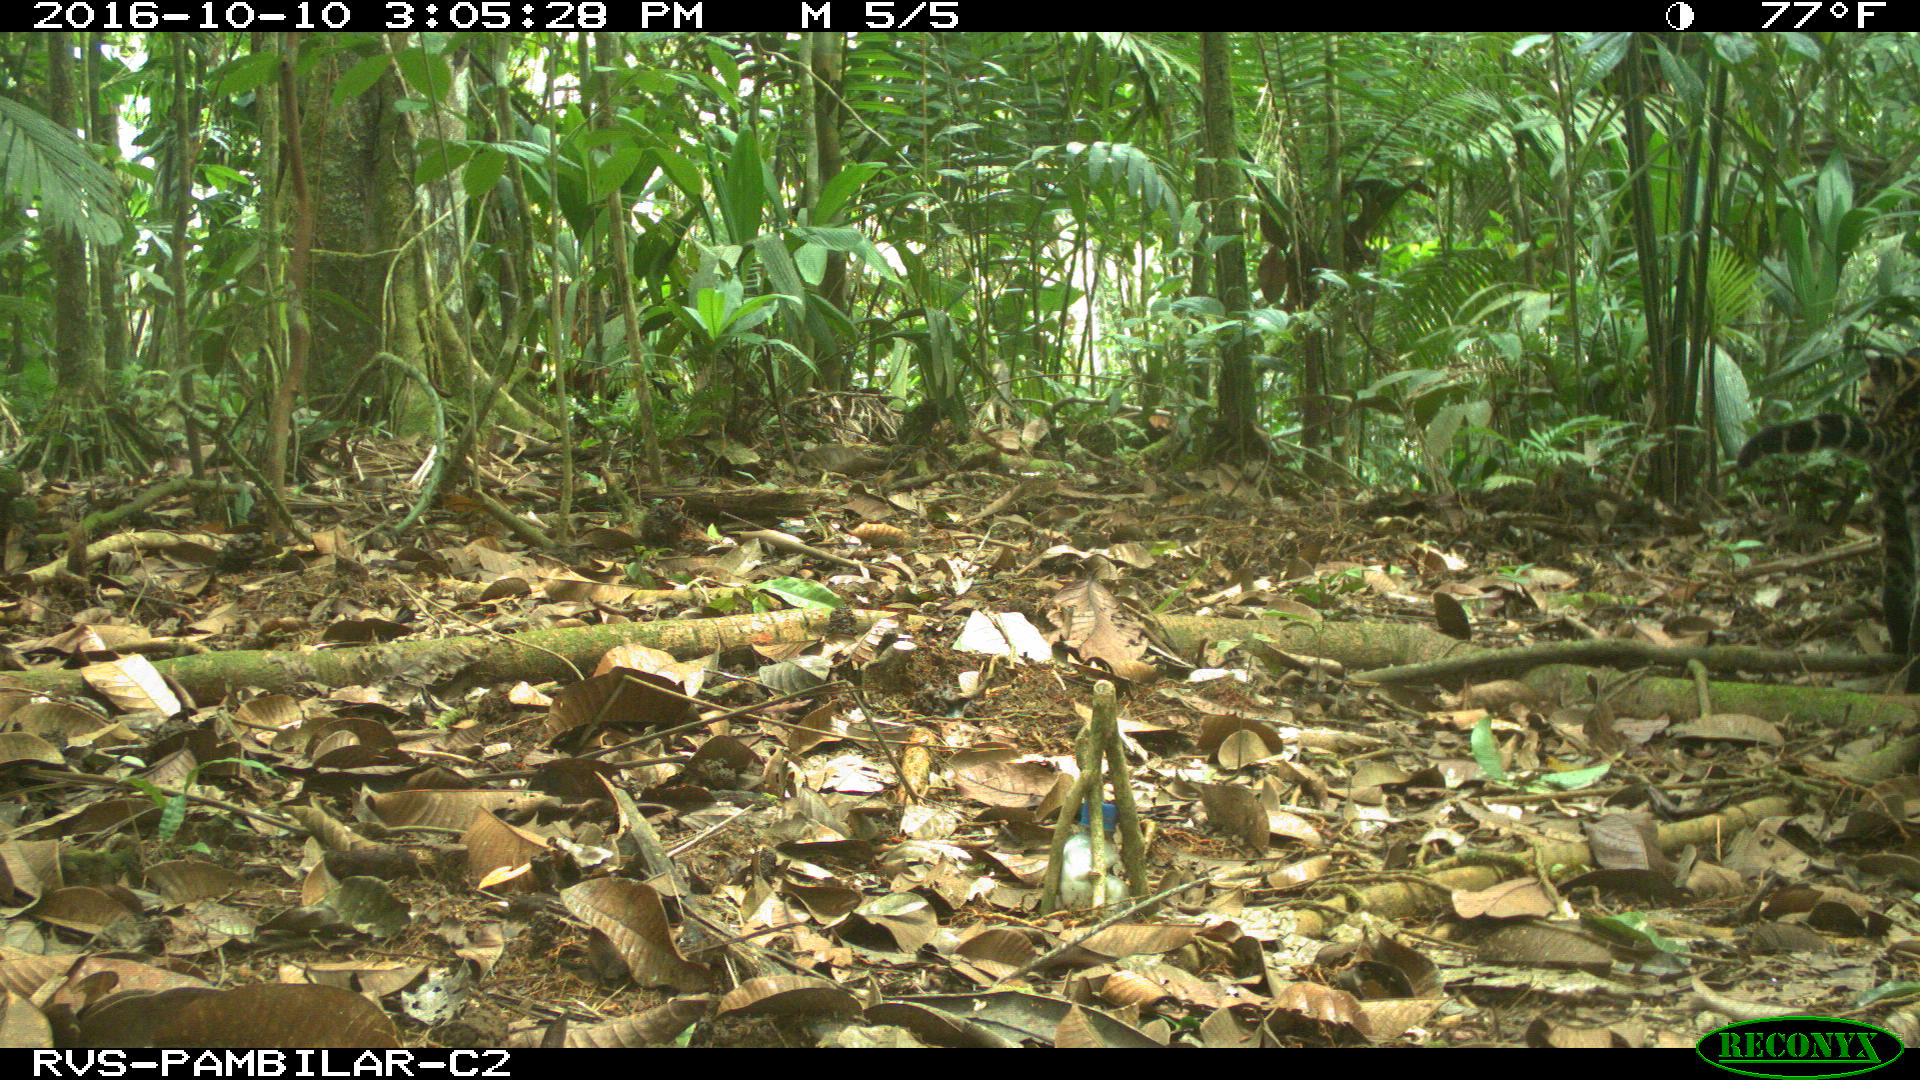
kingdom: Animalia
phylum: Chordata
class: Mammalia
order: Carnivora
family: Felidae
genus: Leopardus
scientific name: Leopardus pardalis
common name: Ocelot
